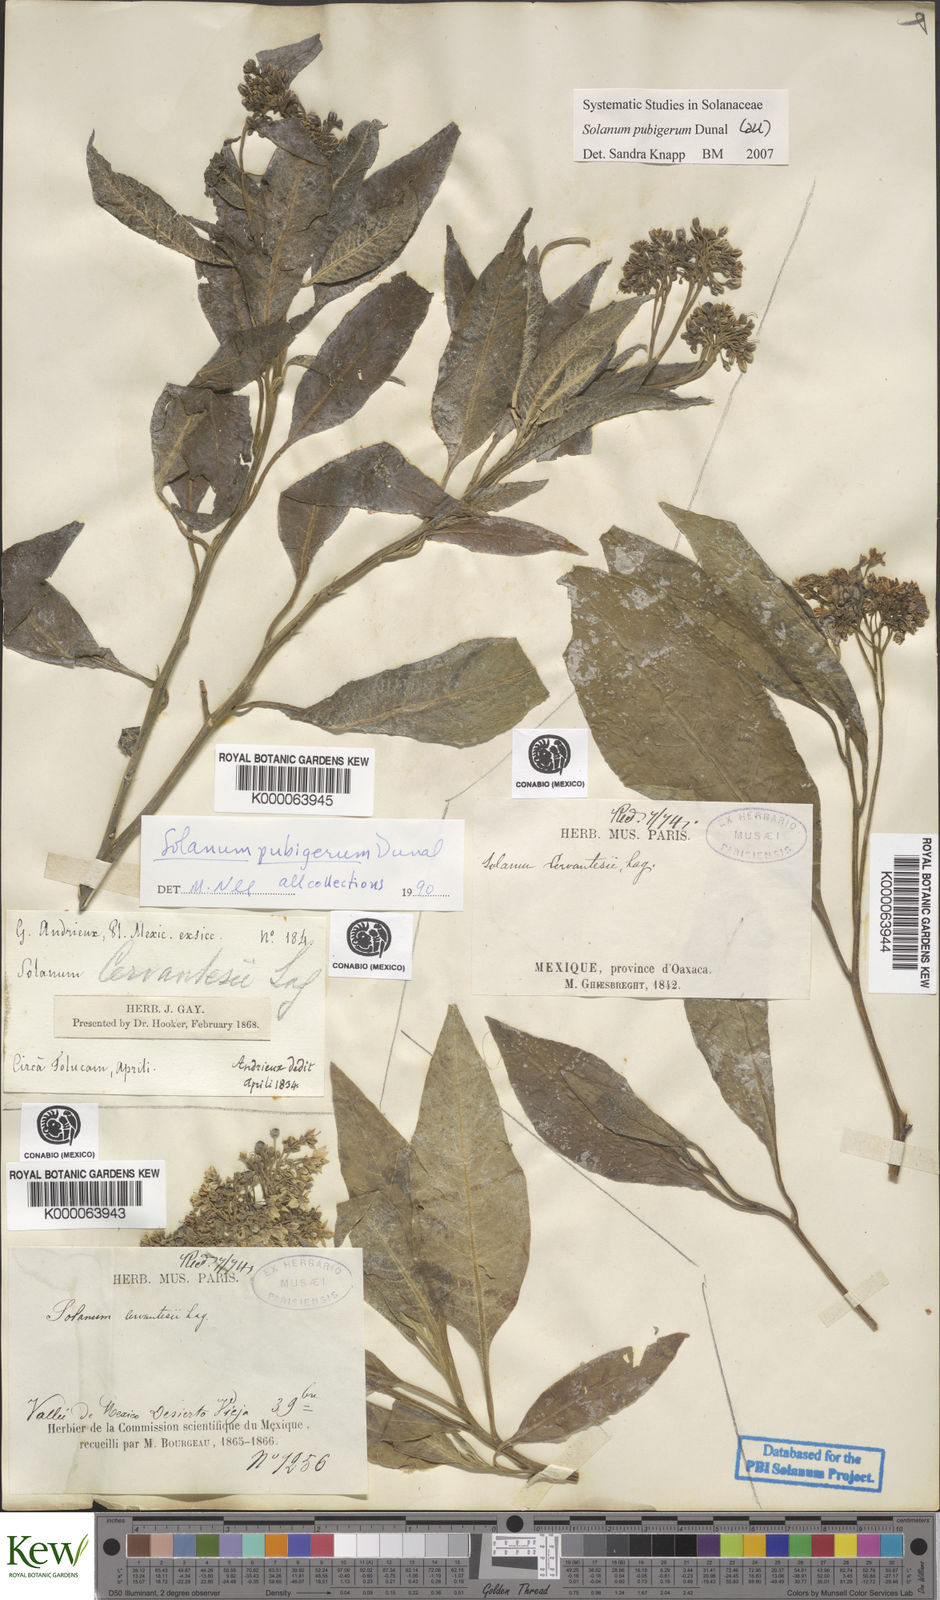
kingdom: Plantae
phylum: Tracheophyta
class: Magnoliopsida
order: Solanales
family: Solanaceae
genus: Solanum
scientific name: Solanum pubigerum
